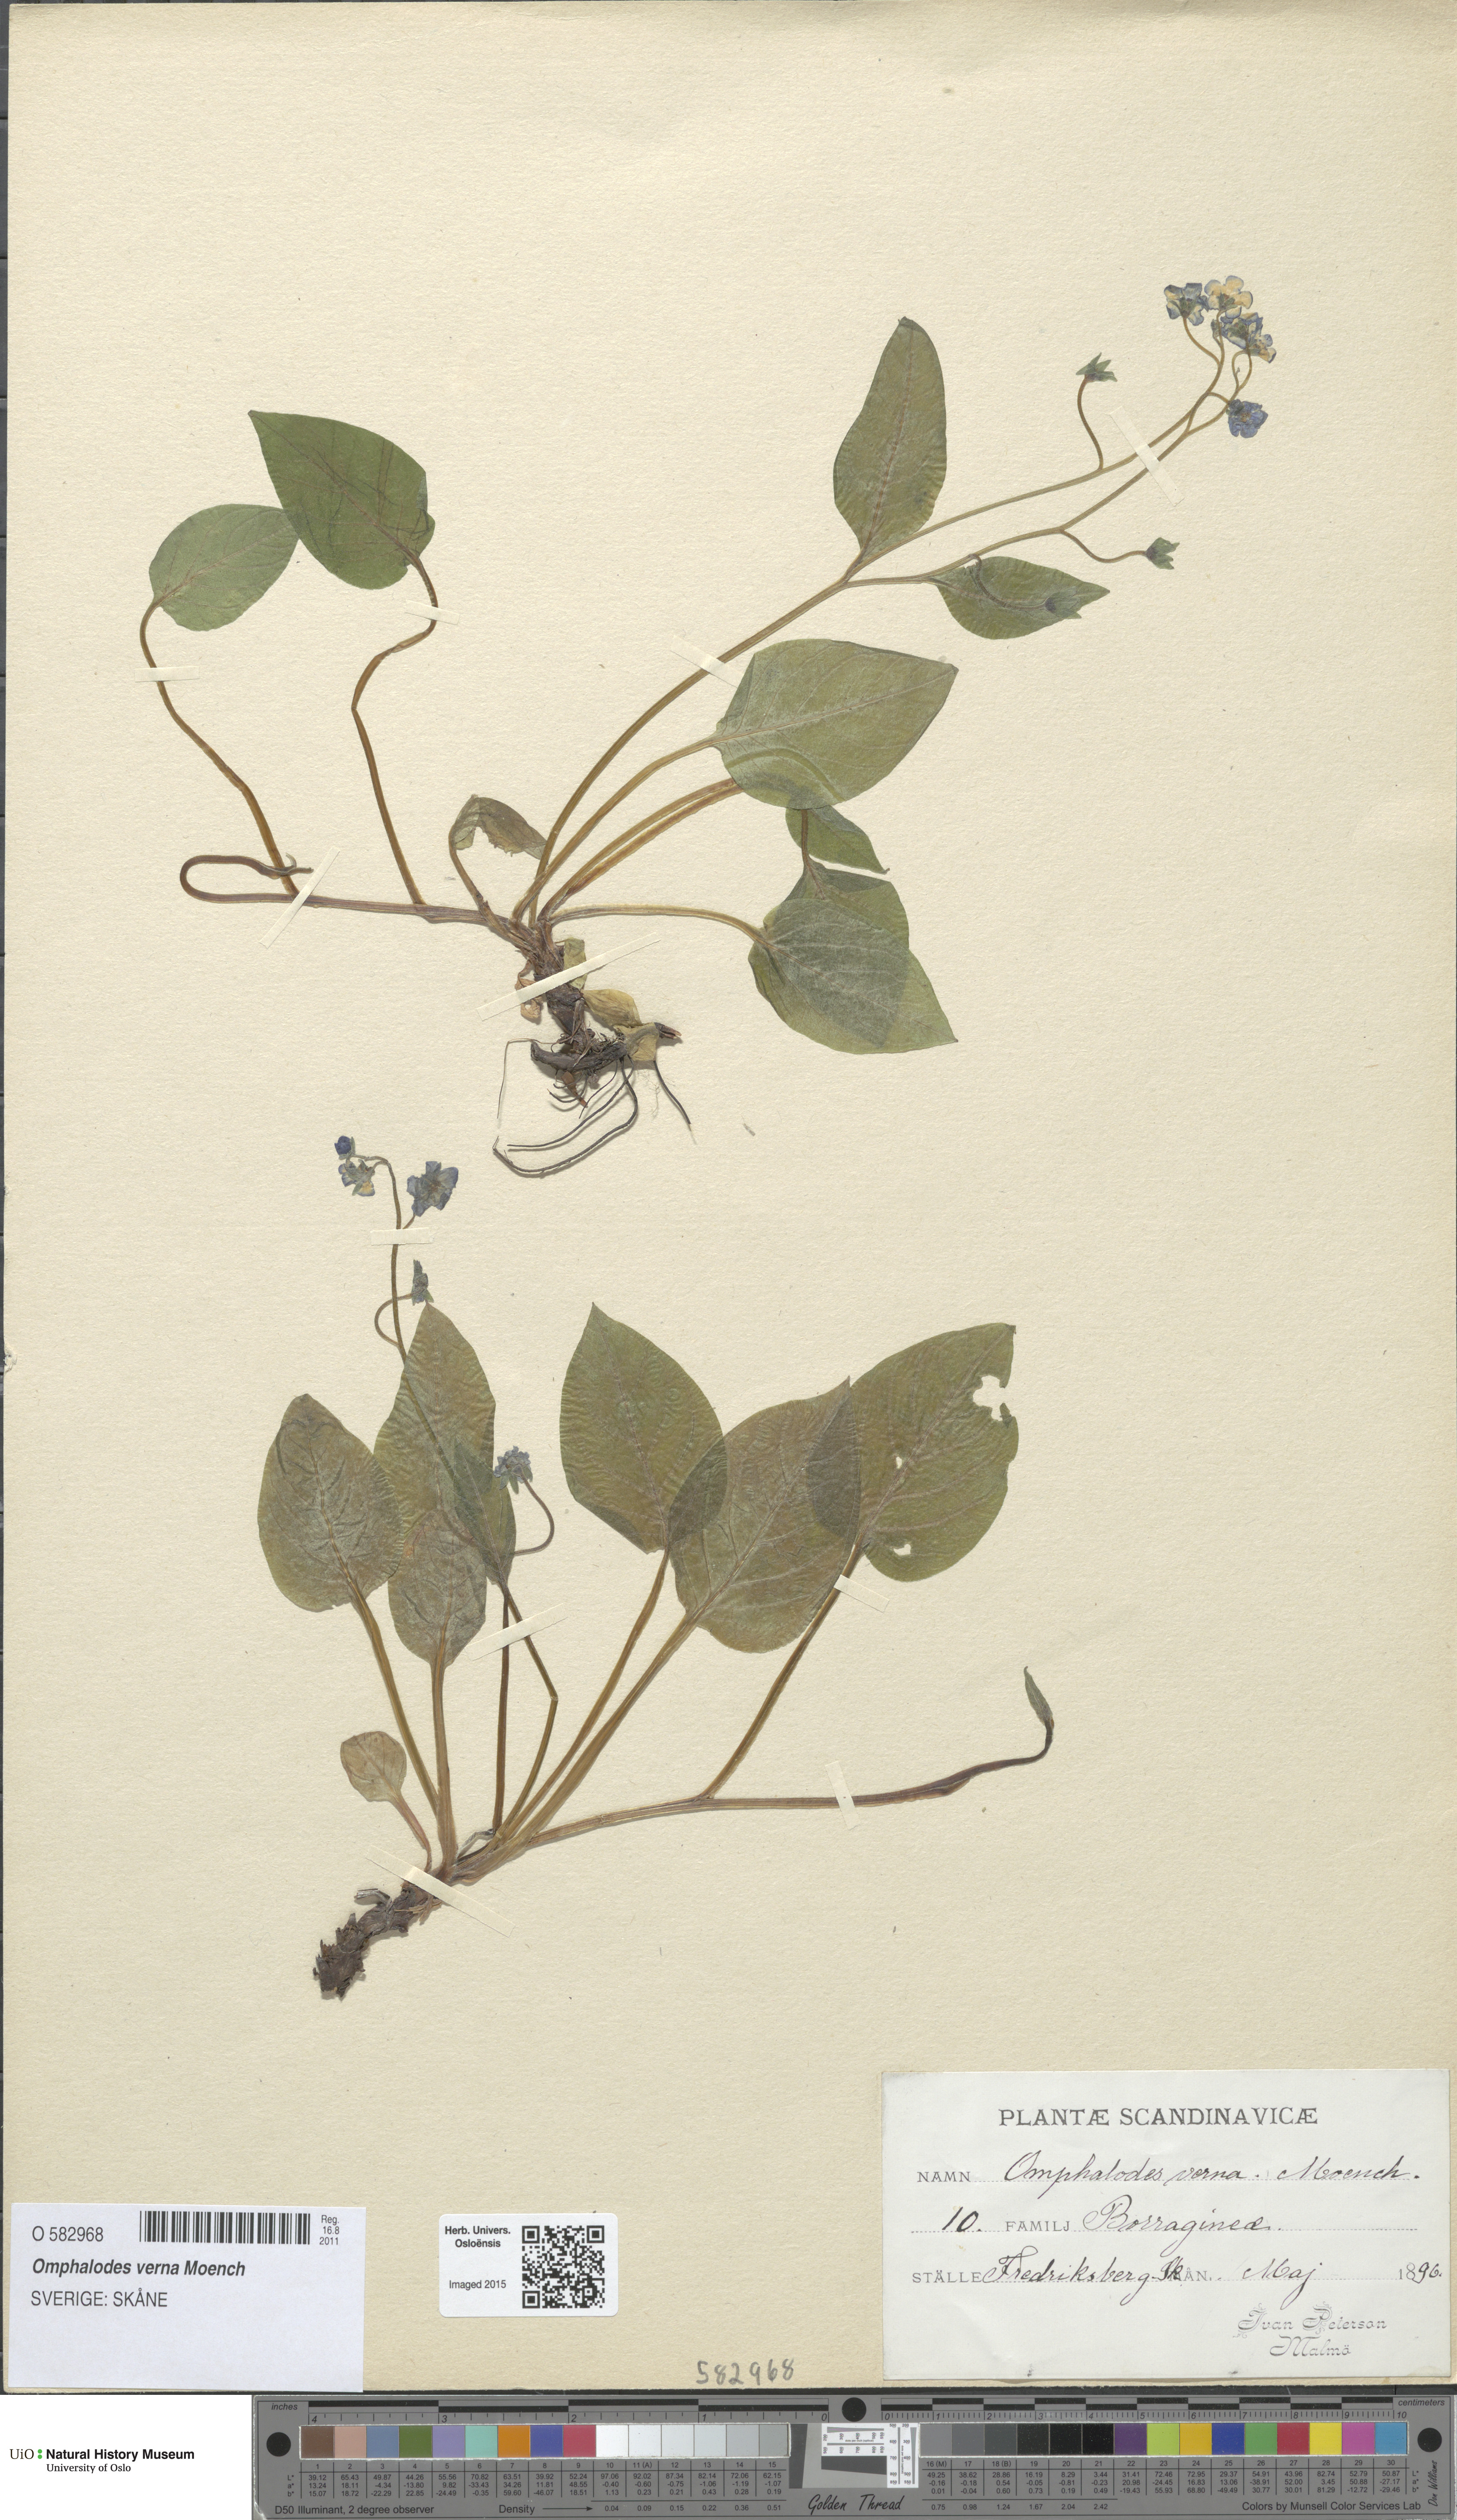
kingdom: Plantae
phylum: Tracheophyta
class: Magnoliopsida
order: Boraginales
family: Boraginaceae
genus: Omphalodes
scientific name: Omphalodes verna
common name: Blue-eyed-mary
